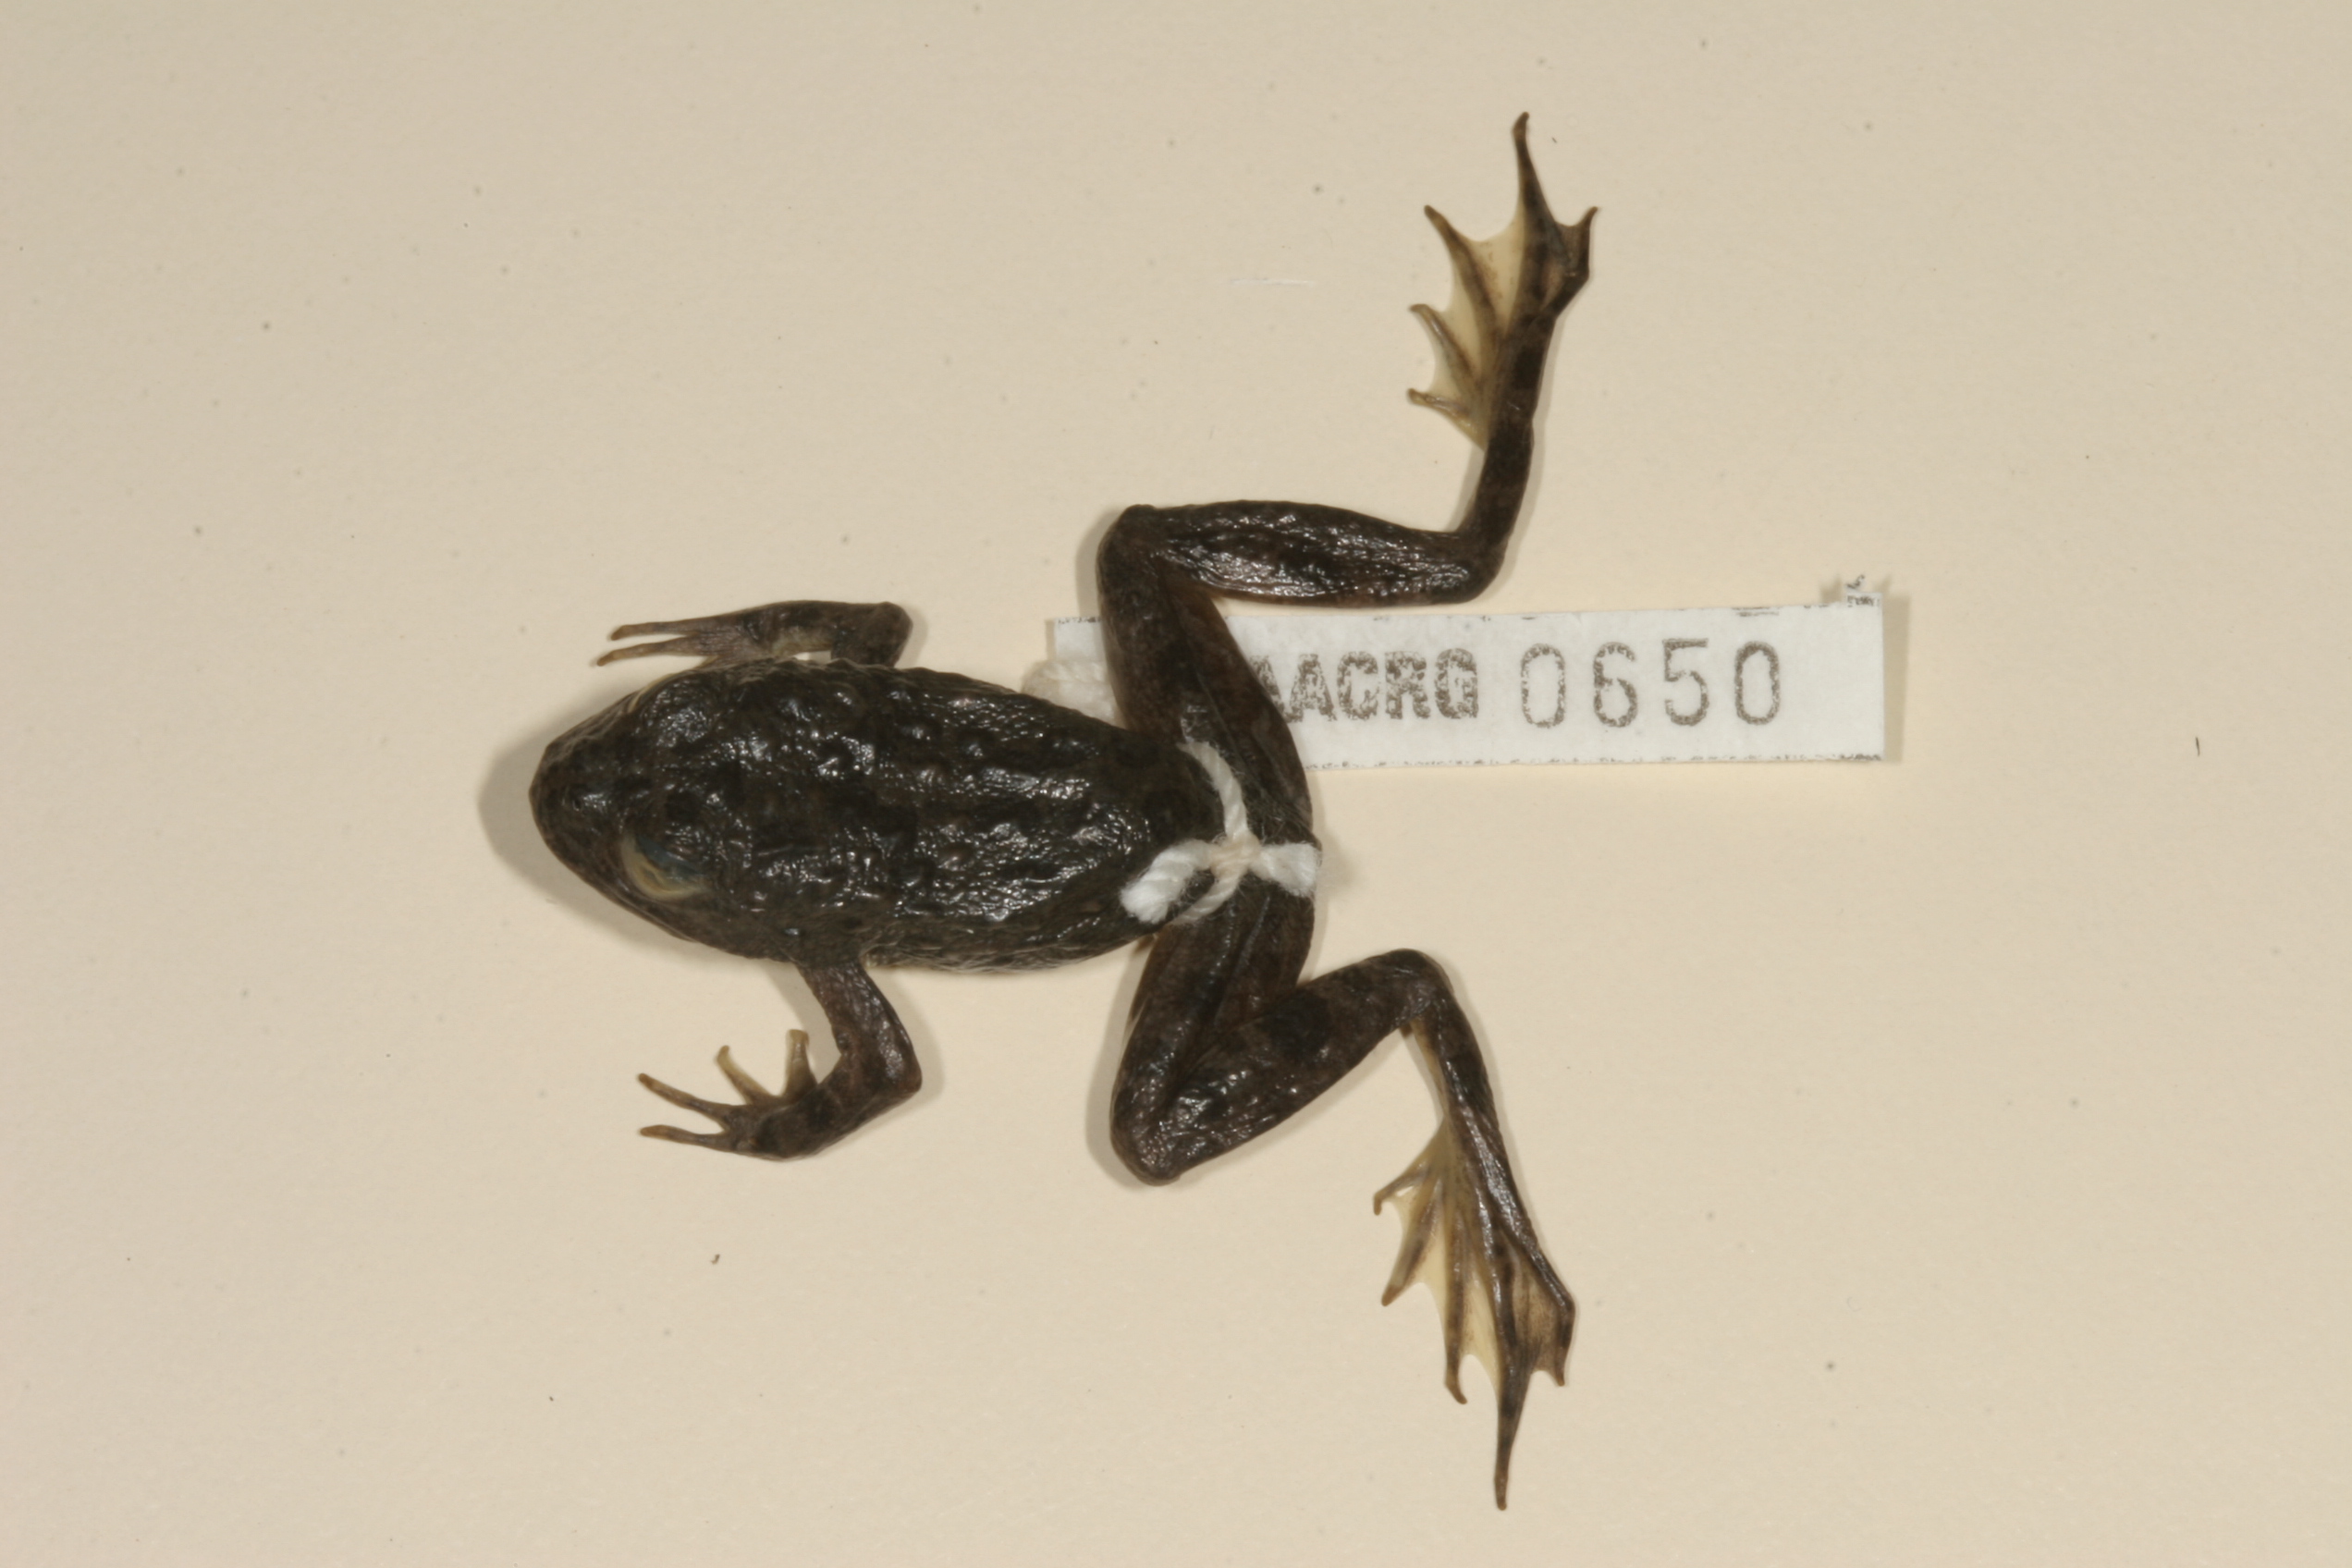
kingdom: Animalia
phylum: Chordata
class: Amphibia
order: Anura
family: Pyxicephalidae
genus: Amietia
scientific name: Amietia vertebralis
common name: Drakensberg stream frog
